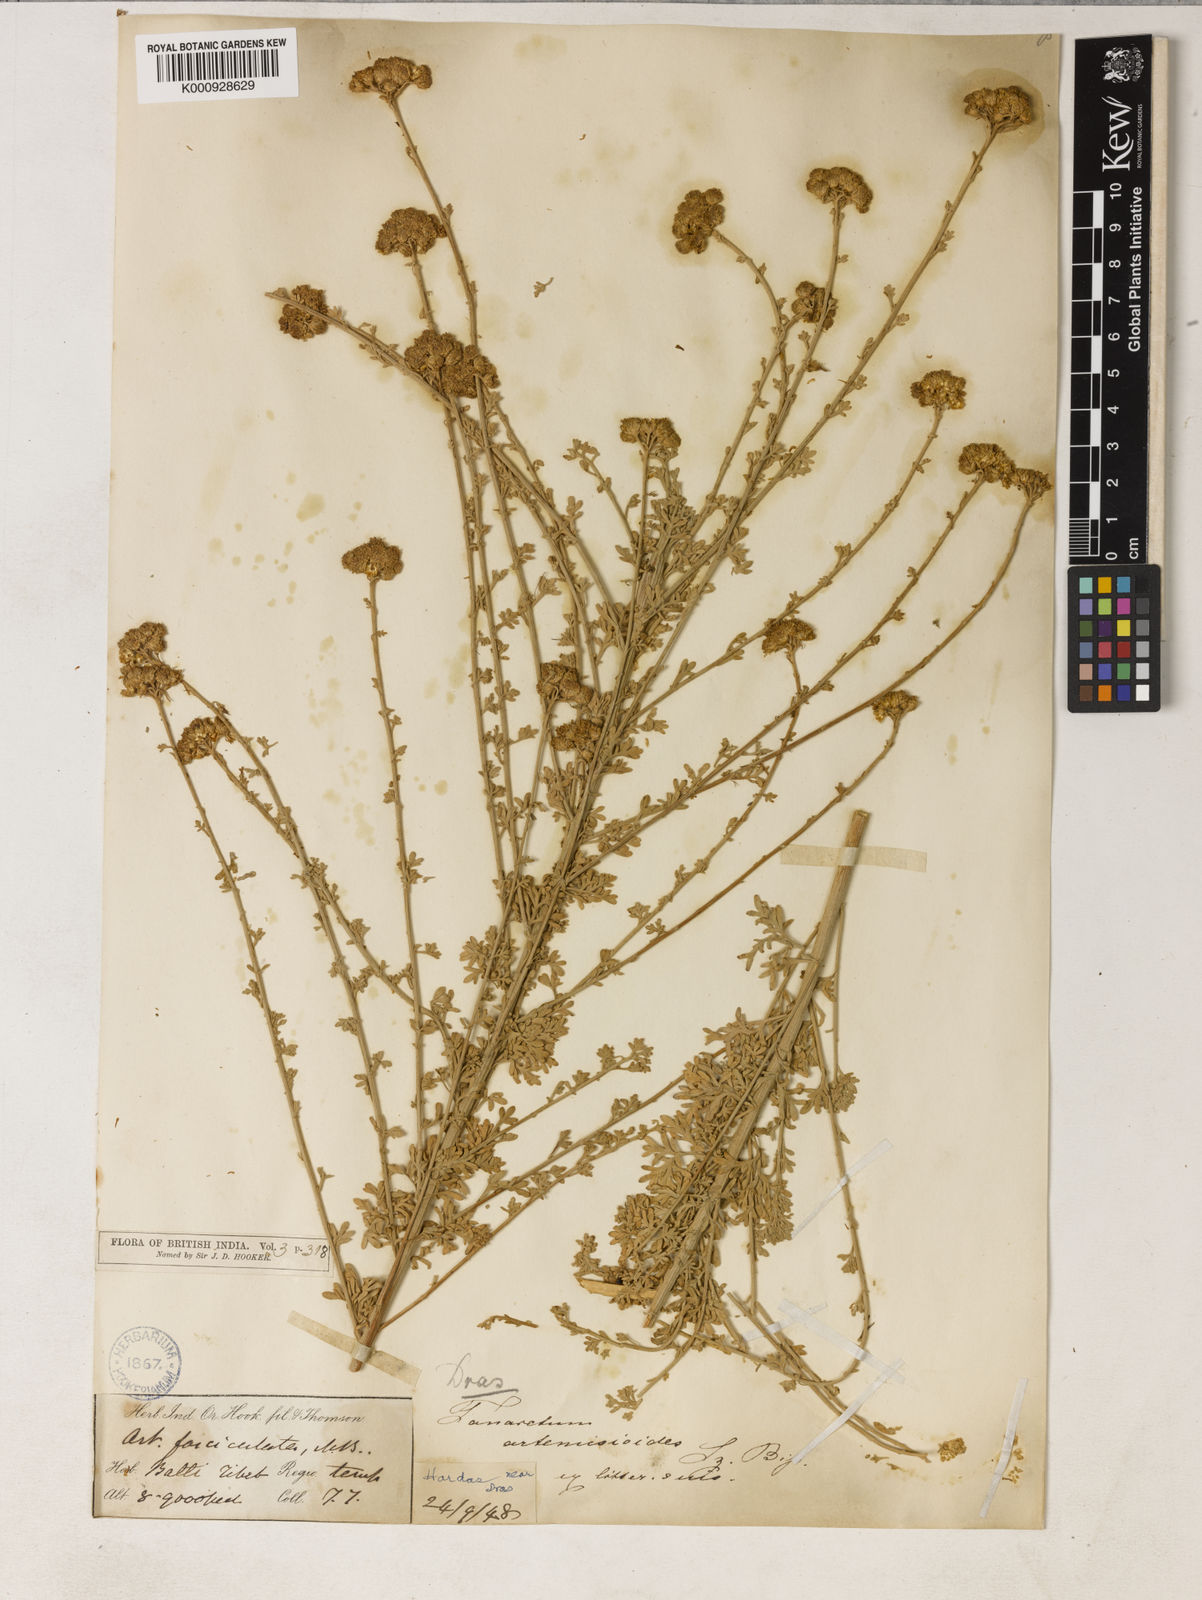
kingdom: Plantae
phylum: Tracheophyta
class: Magnoliopsida
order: Asterales
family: Asteraceae
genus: Tanacetum
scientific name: Tanacetum artemisioides
